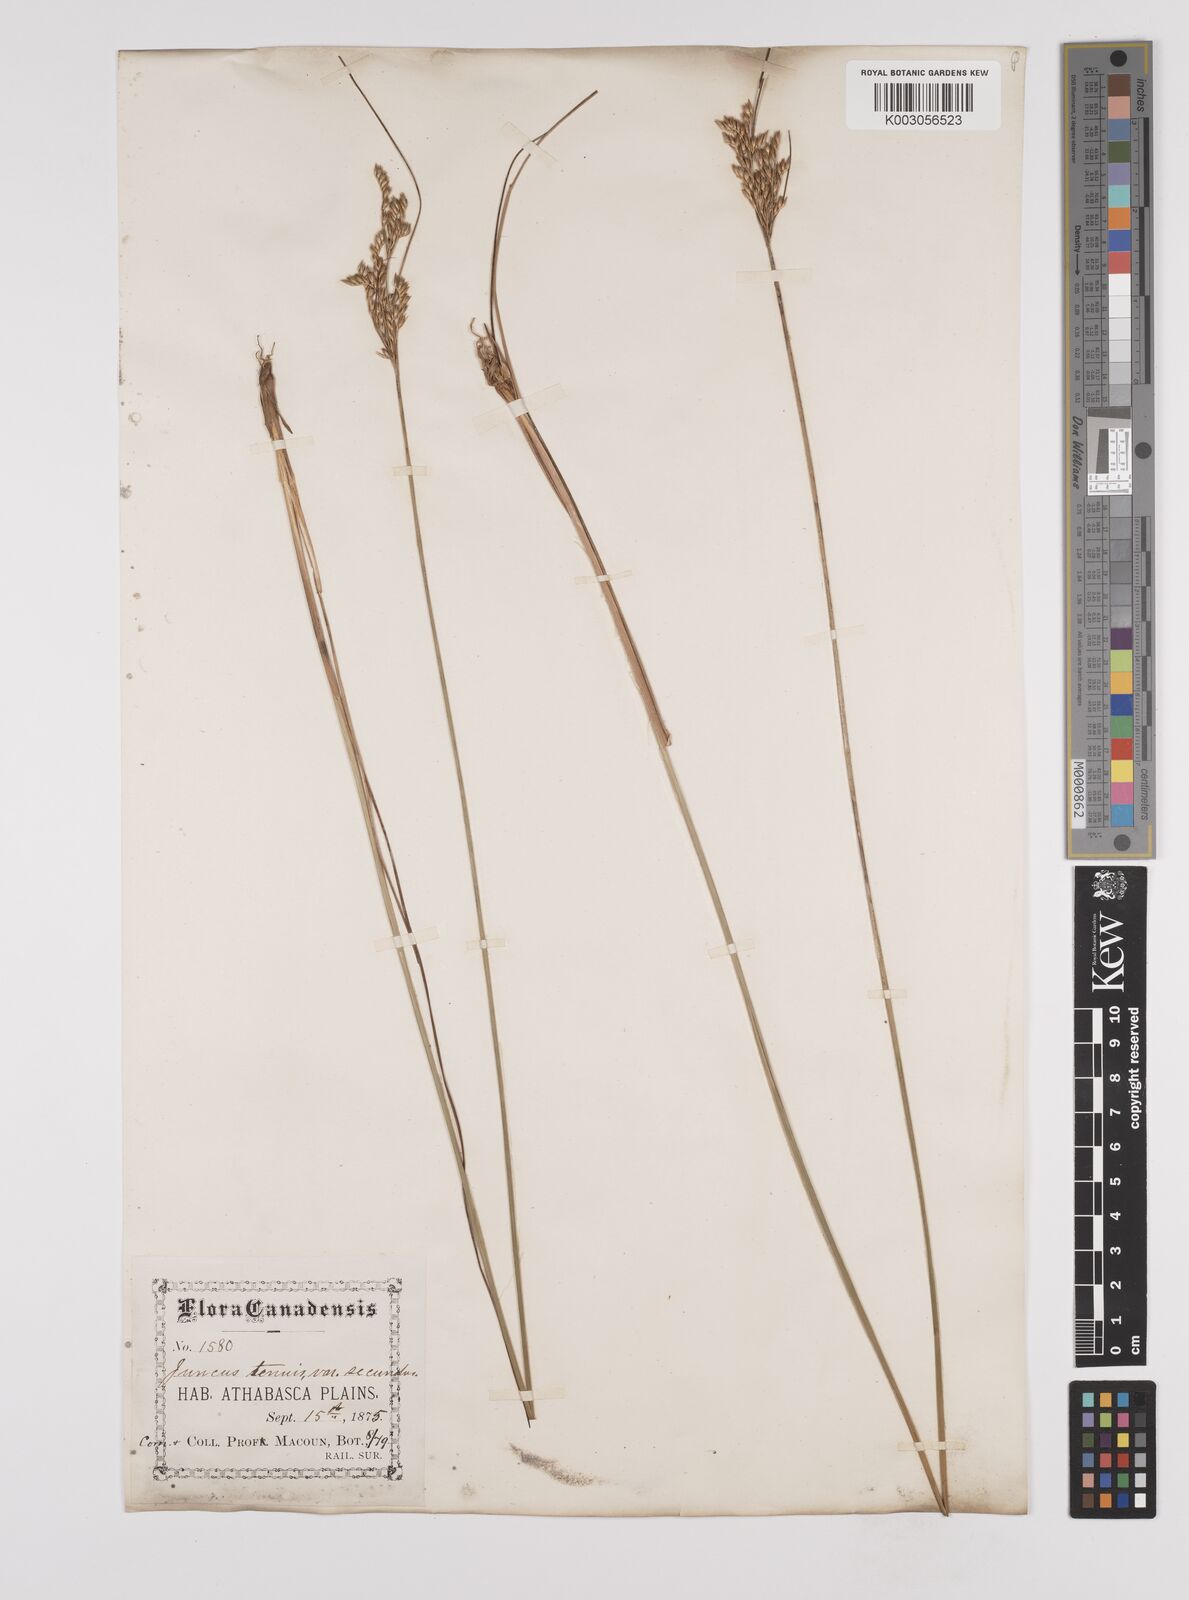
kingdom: Plantae
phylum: Tracheophyta
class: Liliopsida
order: Poales
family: Juncaceae
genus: Juncus
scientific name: Juncus secundus
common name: Lopsided rush
